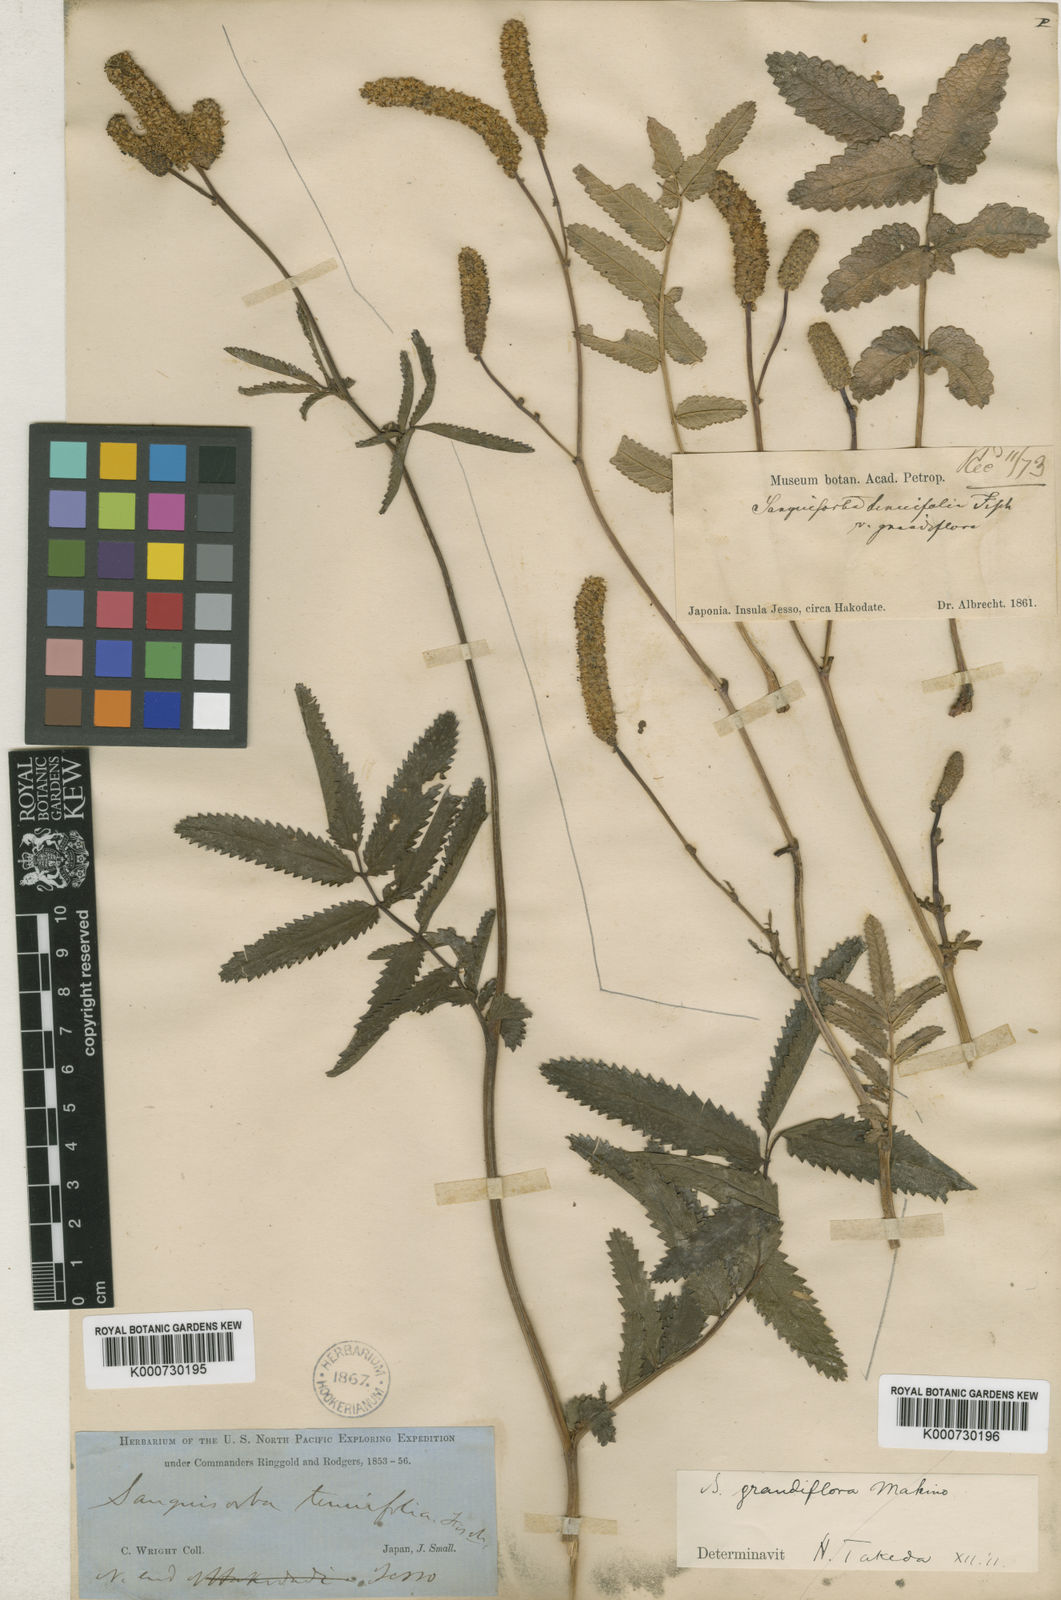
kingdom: Plantae
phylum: Tracheophyta
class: Magnoliopsida
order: Rosales
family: Rosaceae
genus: Poterium
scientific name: Poterium tenuifolium
